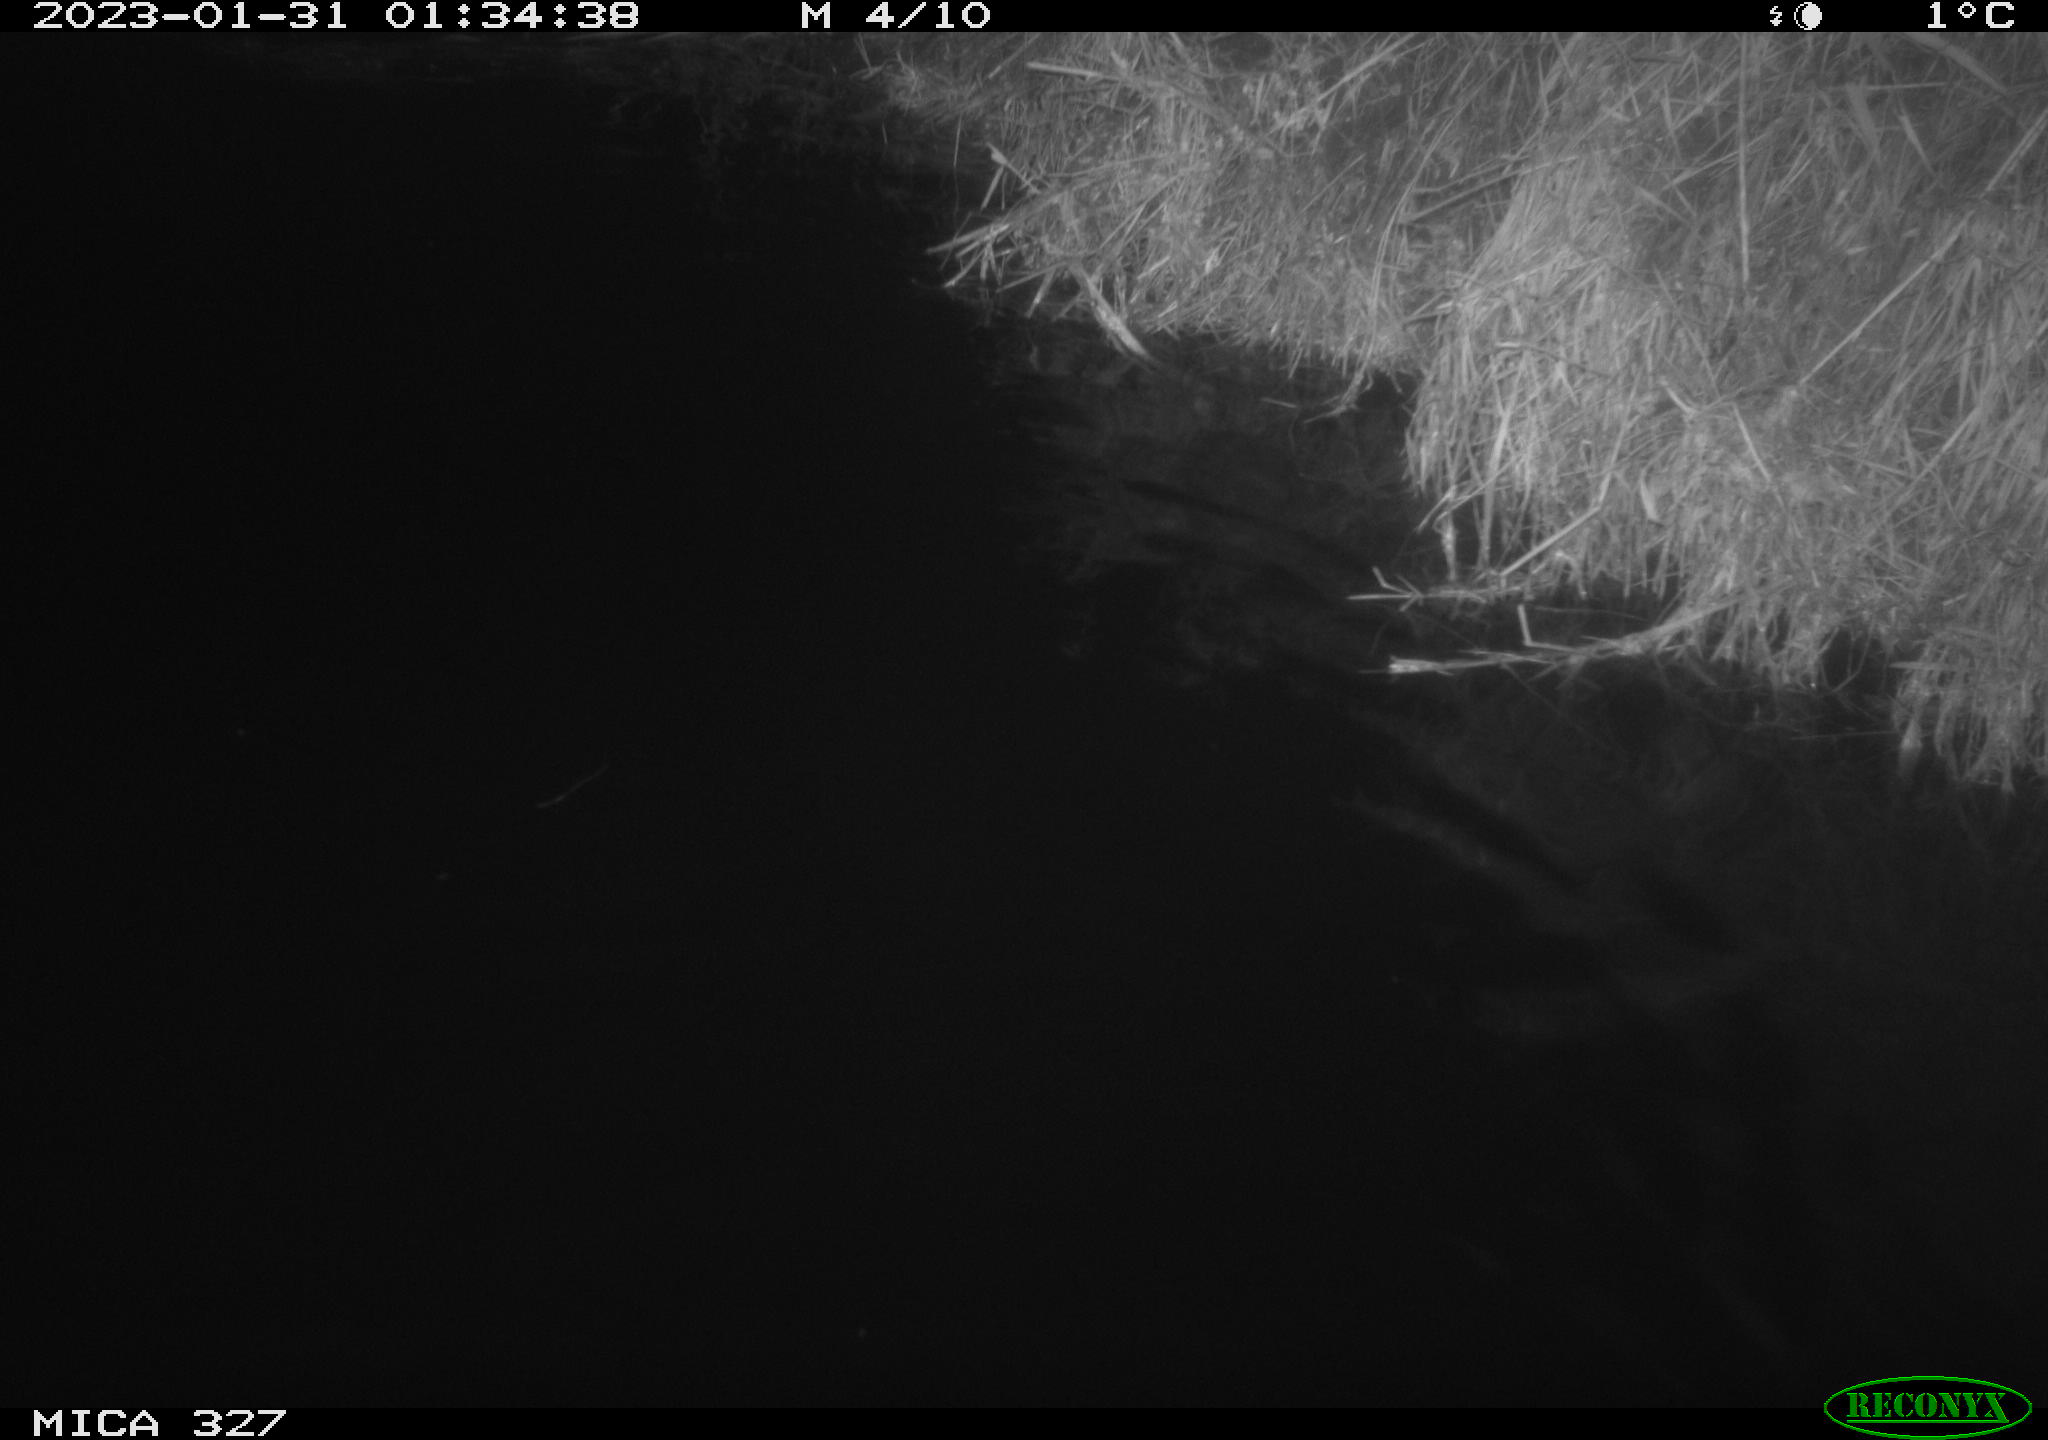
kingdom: Animalia
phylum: Chordata
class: Mammalia
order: Rodentia
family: Cricetidae
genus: Ondatra
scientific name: Ondatra zibethicus
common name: Muskrat
